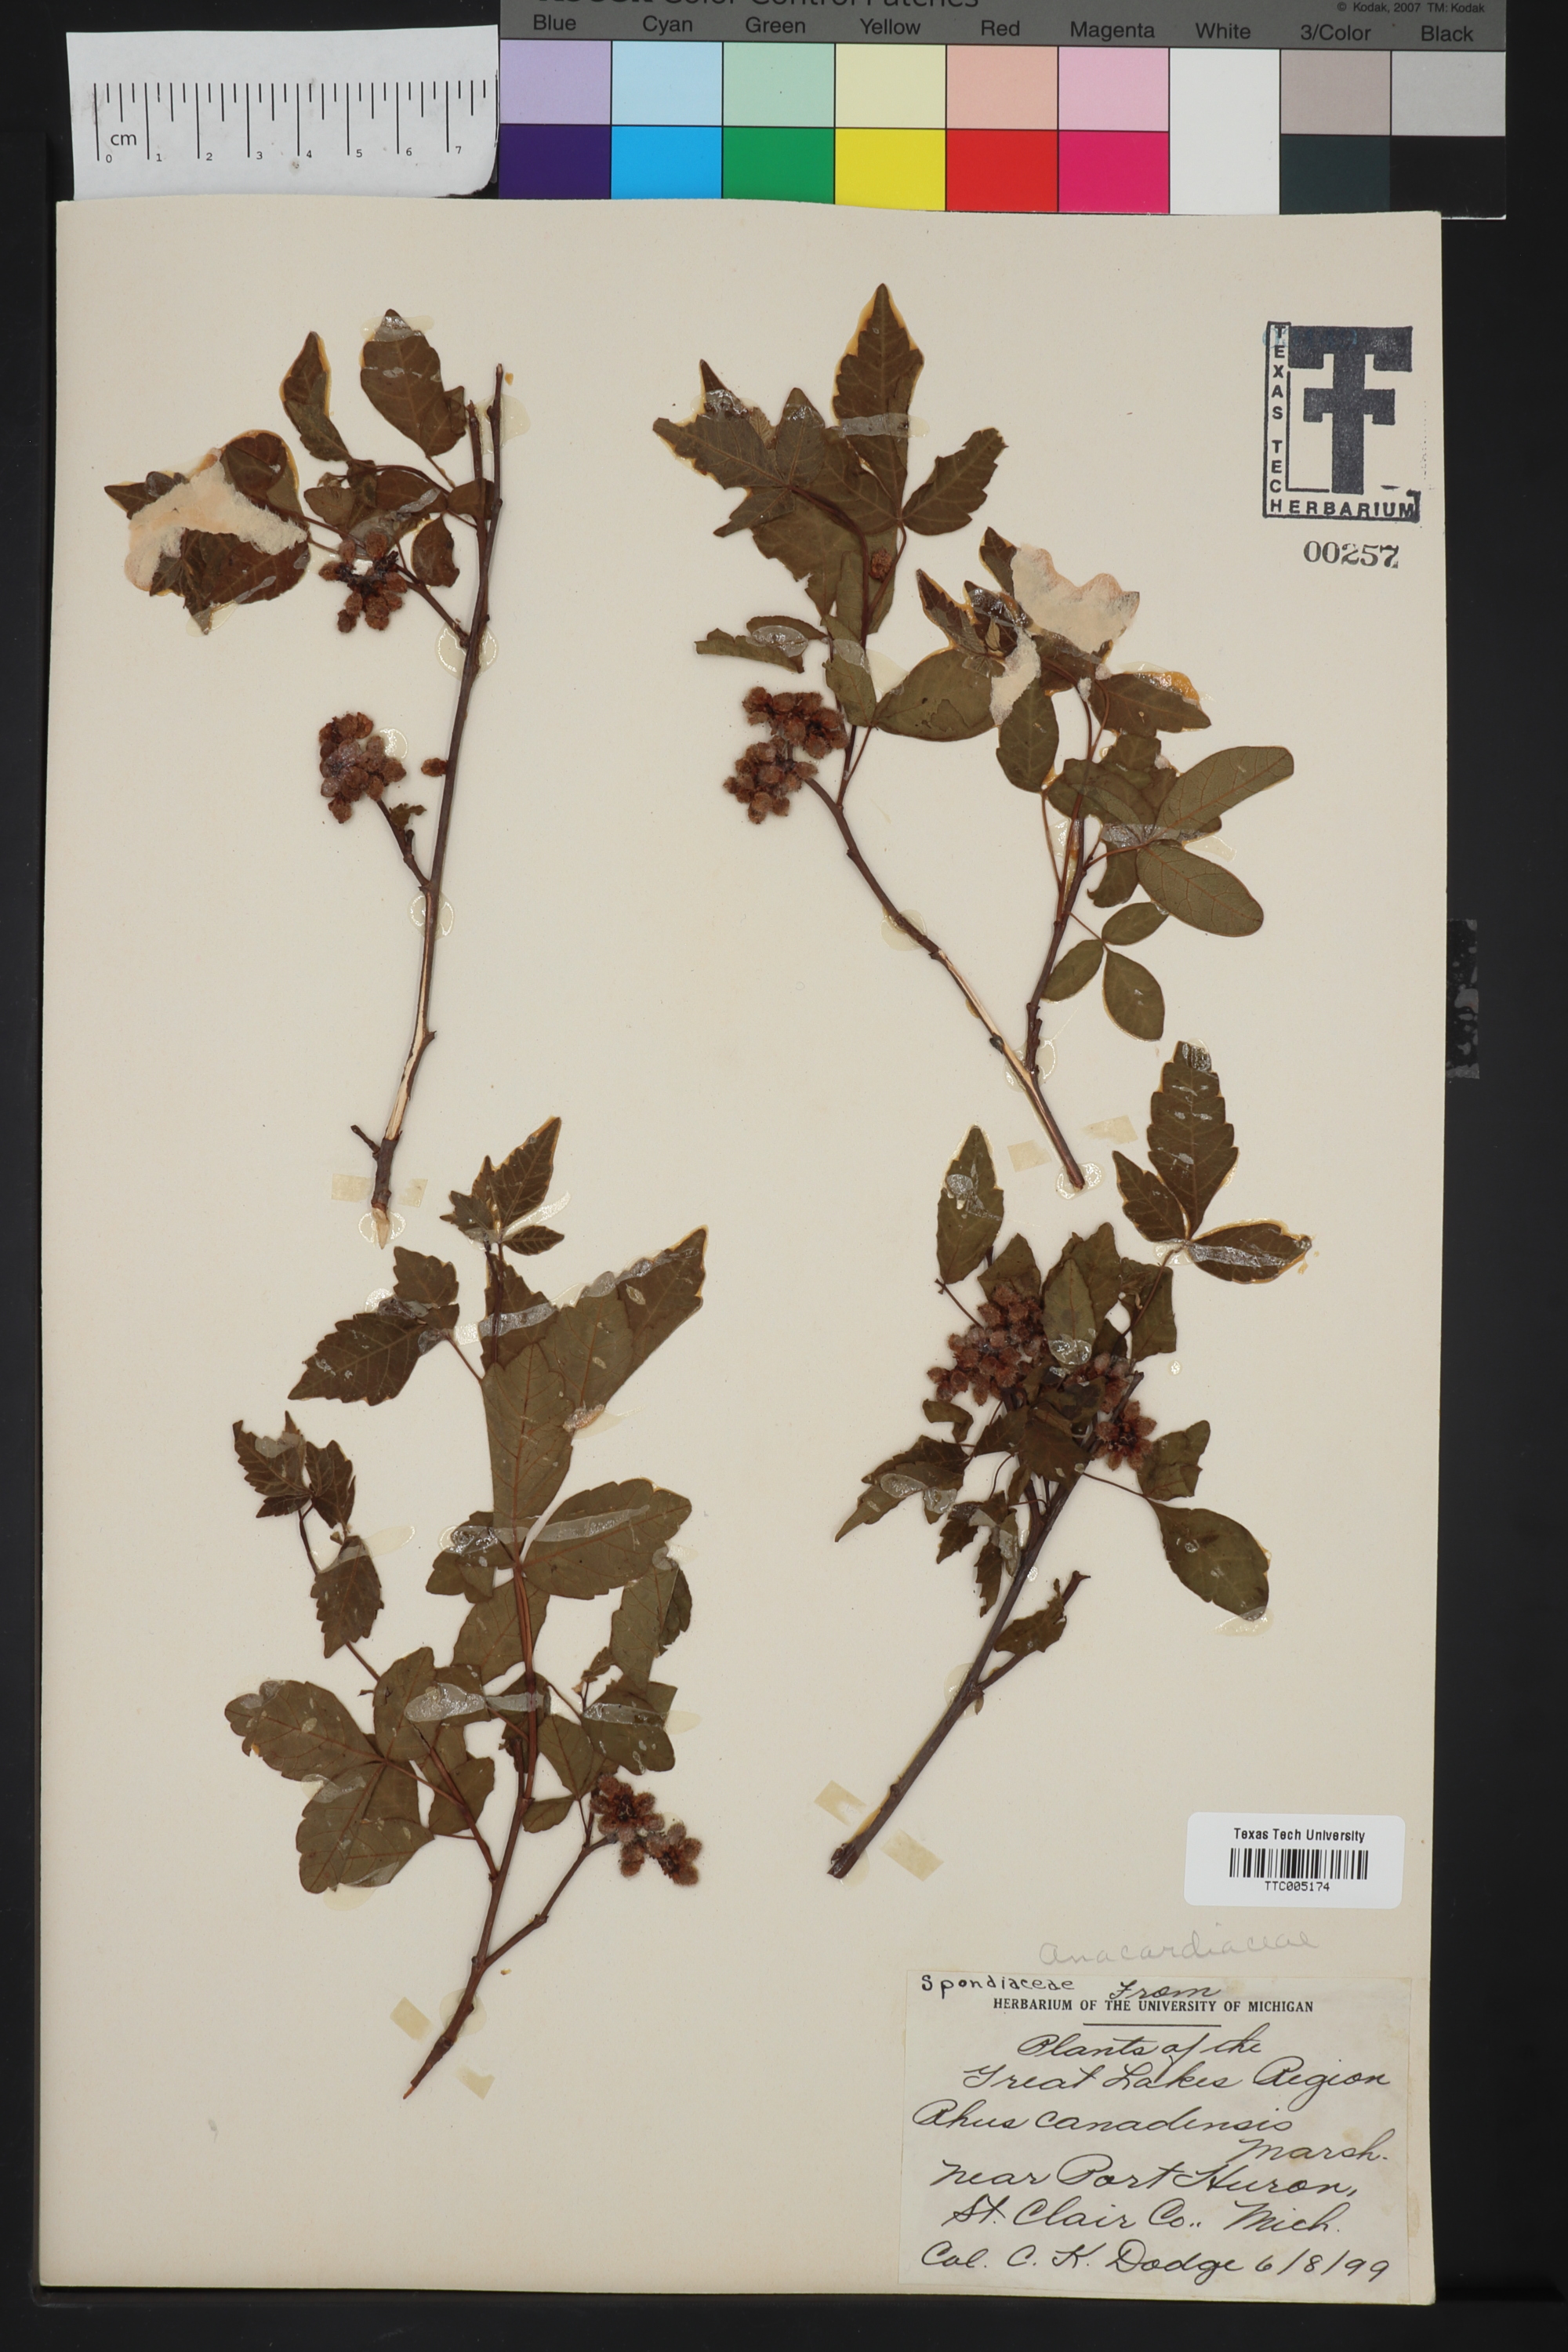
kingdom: Plantae
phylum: Tracheophyta
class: Magnoliopsida
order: Sapindales
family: Anacardiaceae
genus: Rhus
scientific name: Rhus typhina
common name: Staghorn sumac
